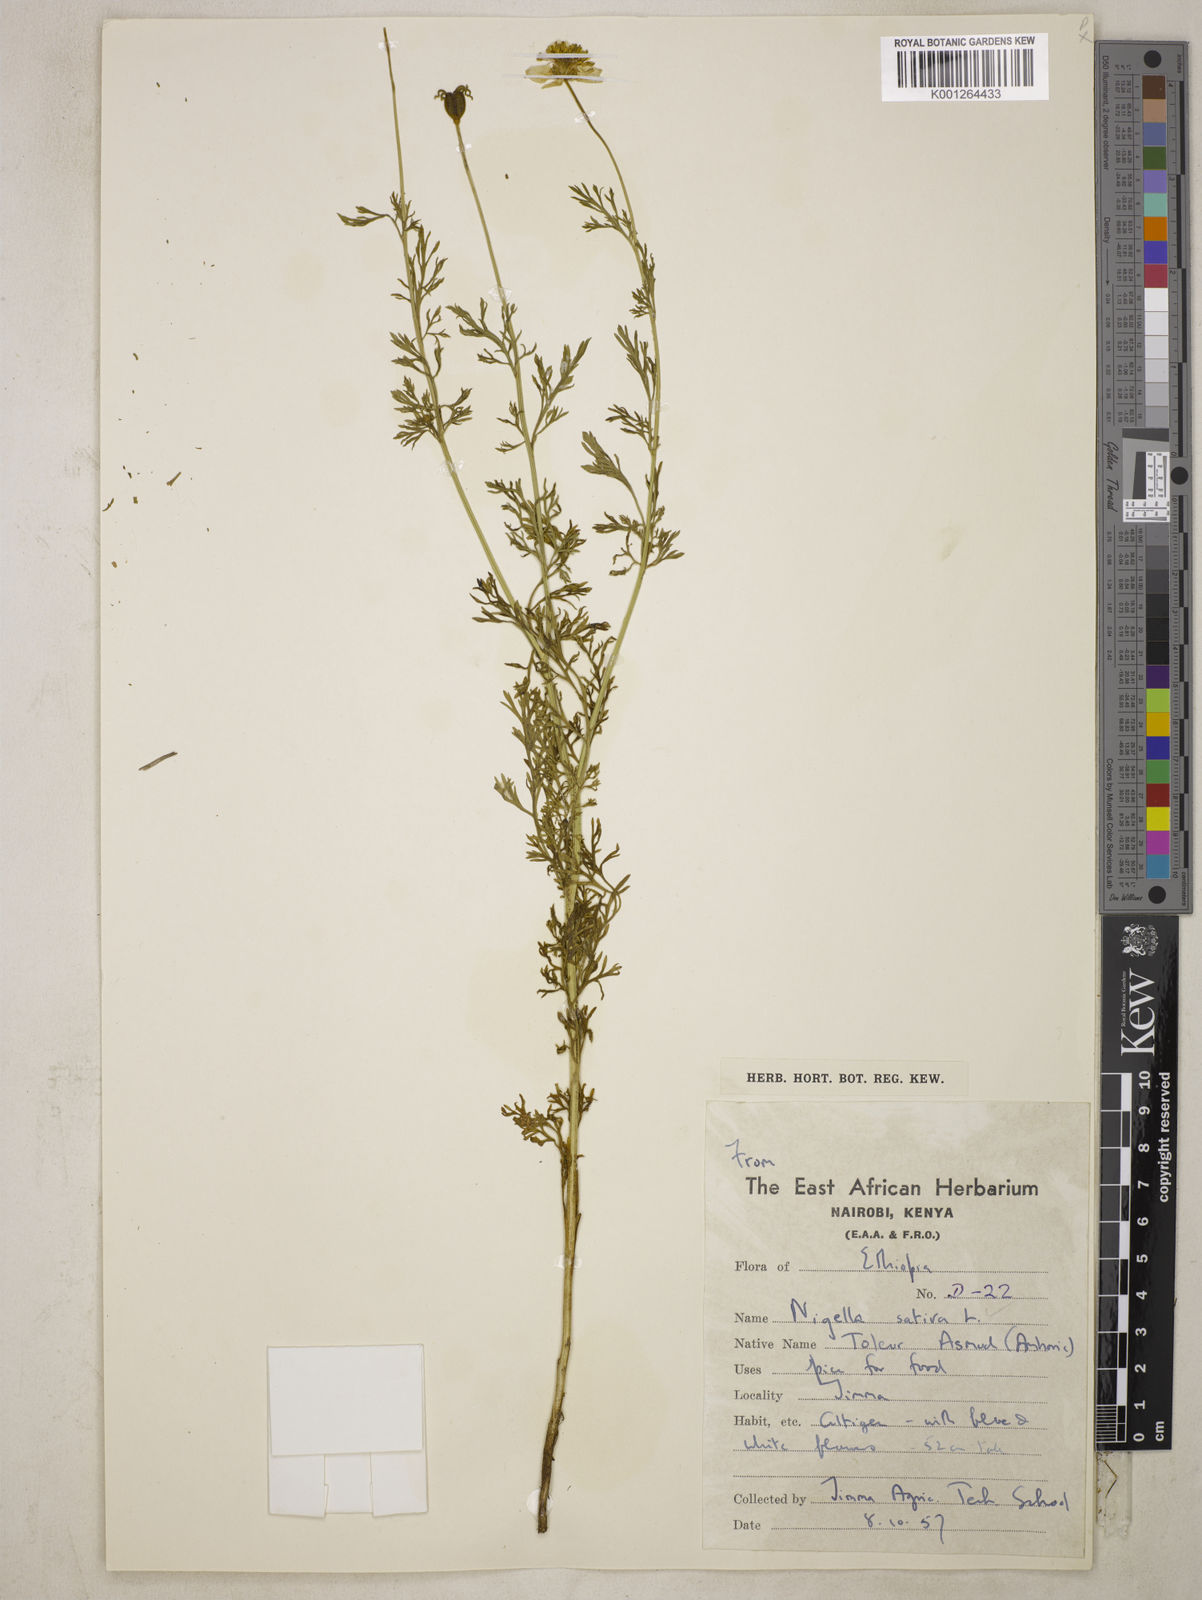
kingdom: Plantae
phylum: Tracheophyta
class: Magnoliopsida
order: Ranunculales
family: Ranunculaceae
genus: Nigella
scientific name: Nigella sativa
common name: Black-cumin
